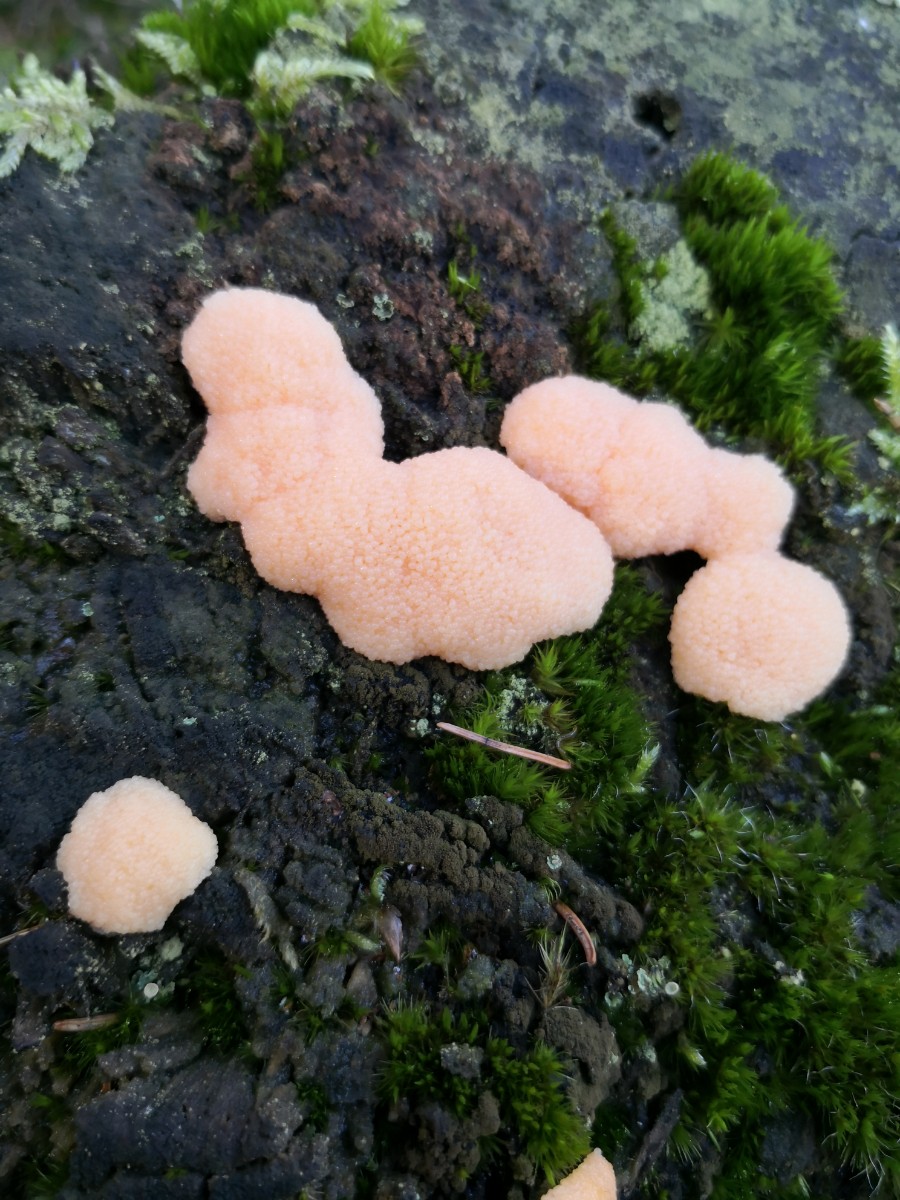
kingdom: Protozoa
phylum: Mycetozoa
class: Myxomycetes
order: Cribrariales
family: Tubiferaceae
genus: Tubifera
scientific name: Tubifera ferruginosa
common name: kanel-støvrør
